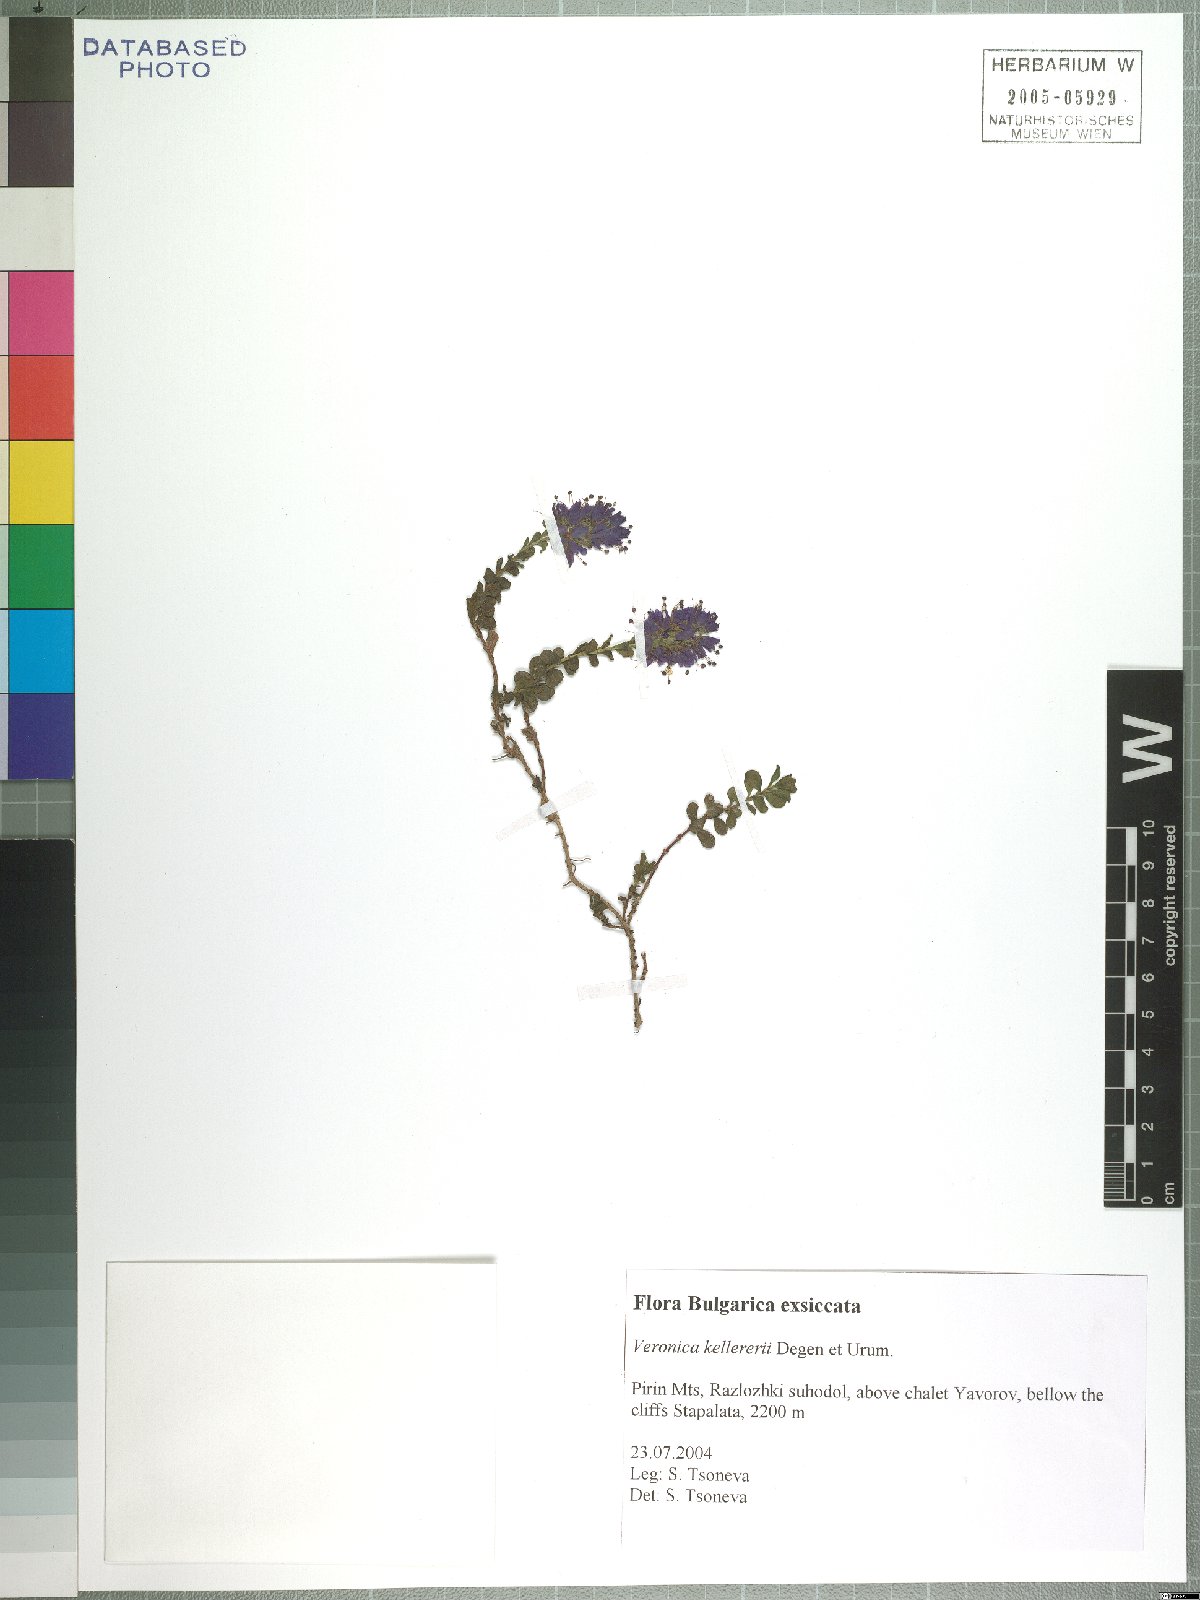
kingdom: Plantae
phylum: Tracheophyta
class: Magnoliopsida
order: Lamiales
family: Plantaginaceae
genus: Veronica
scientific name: Veronica saturejoides
